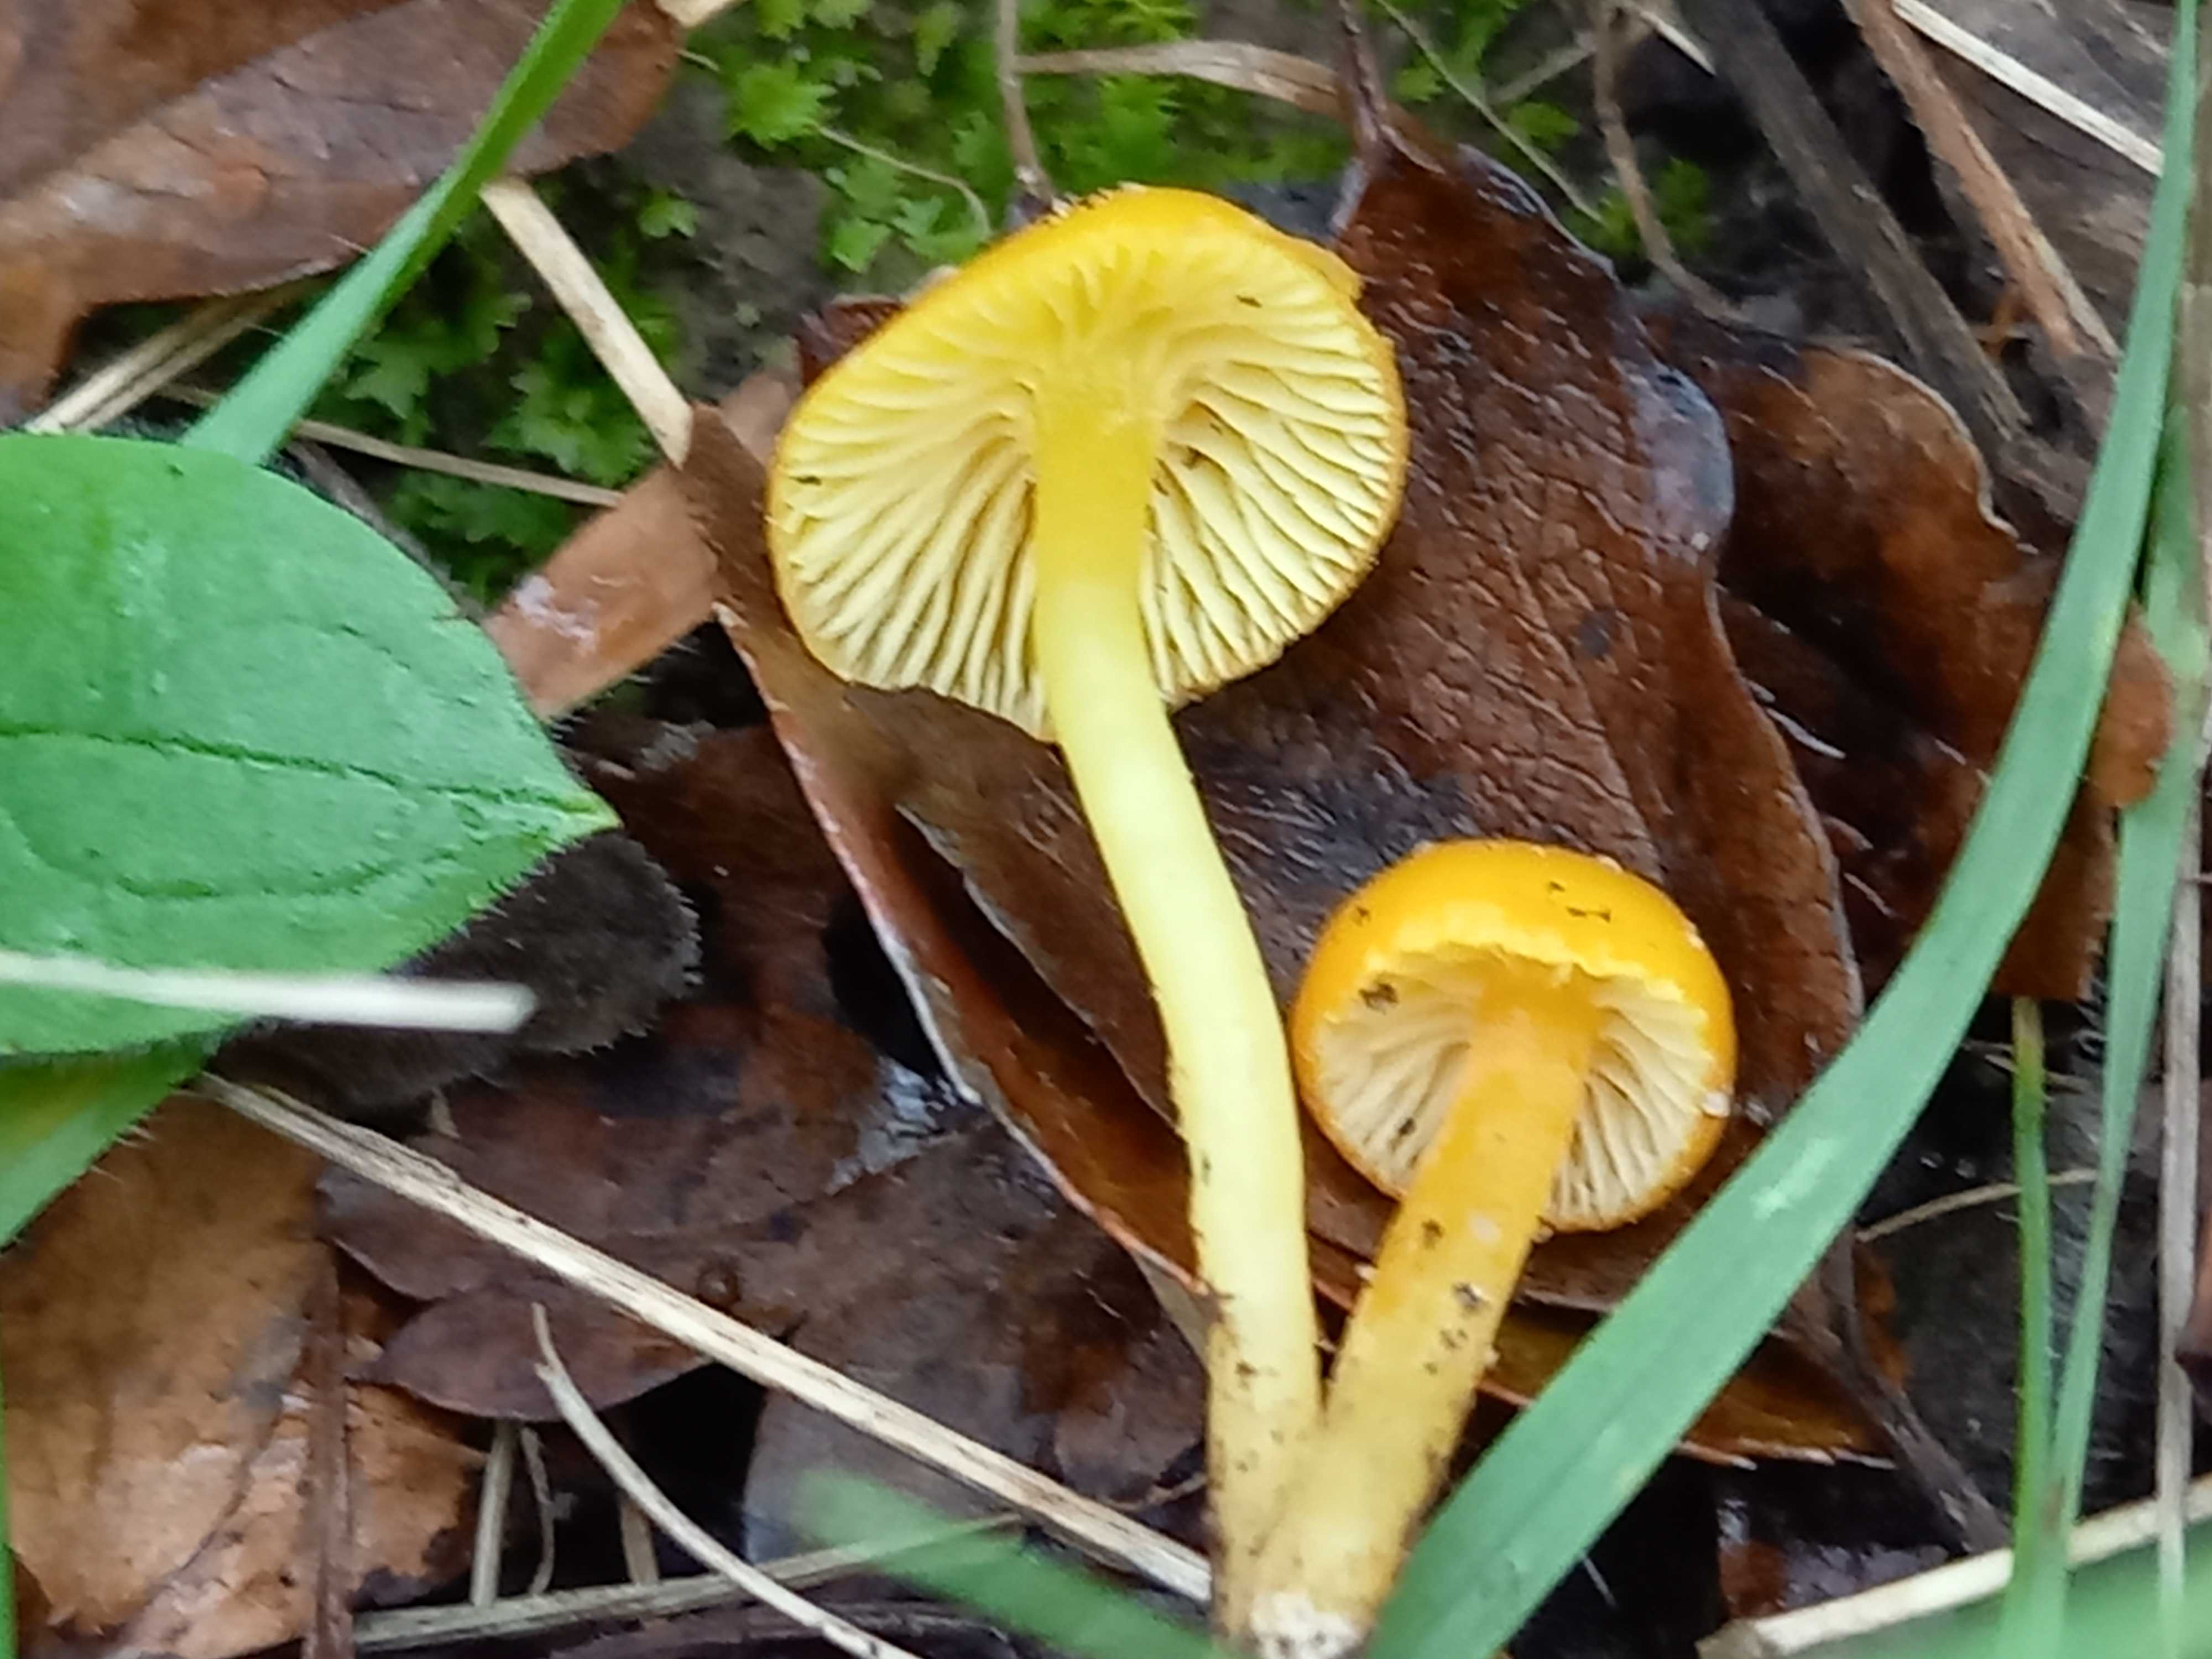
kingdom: Fungi
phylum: Basidiomycota
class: Agaricomycetes
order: Agaricales
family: Hygrophoraceae
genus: Hygrocybe
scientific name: Hygrocybe ceracea
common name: voksgul vokshat
